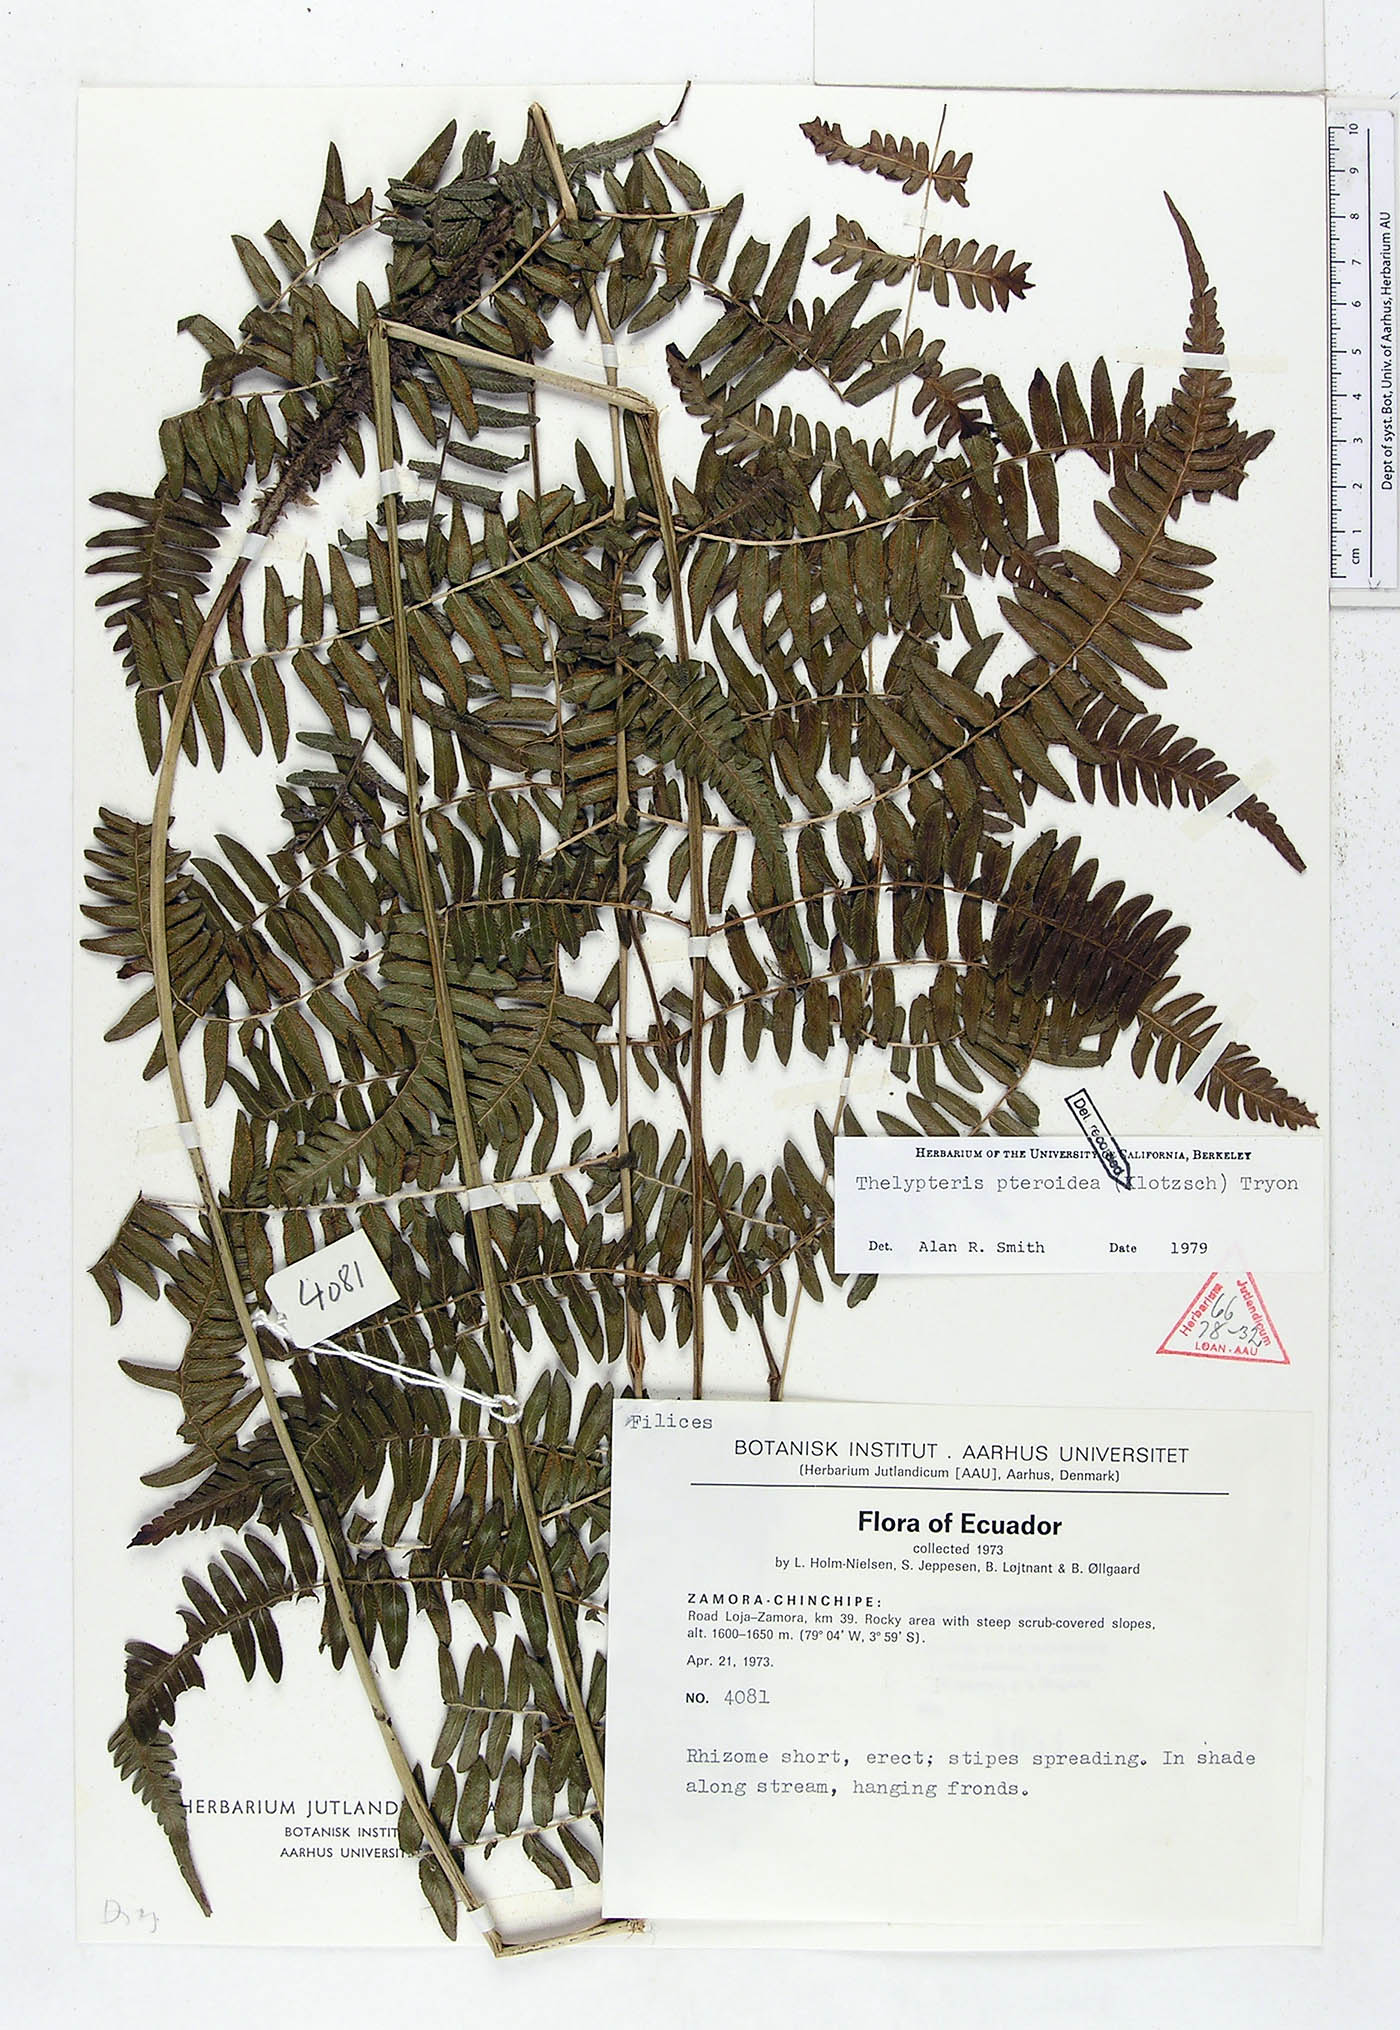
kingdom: Plantae
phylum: Tracheophyta
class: Polypodiopsida
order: Polypodiales
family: Thelypteridaceae
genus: Amauropelta
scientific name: Amauropelta pteroidea
